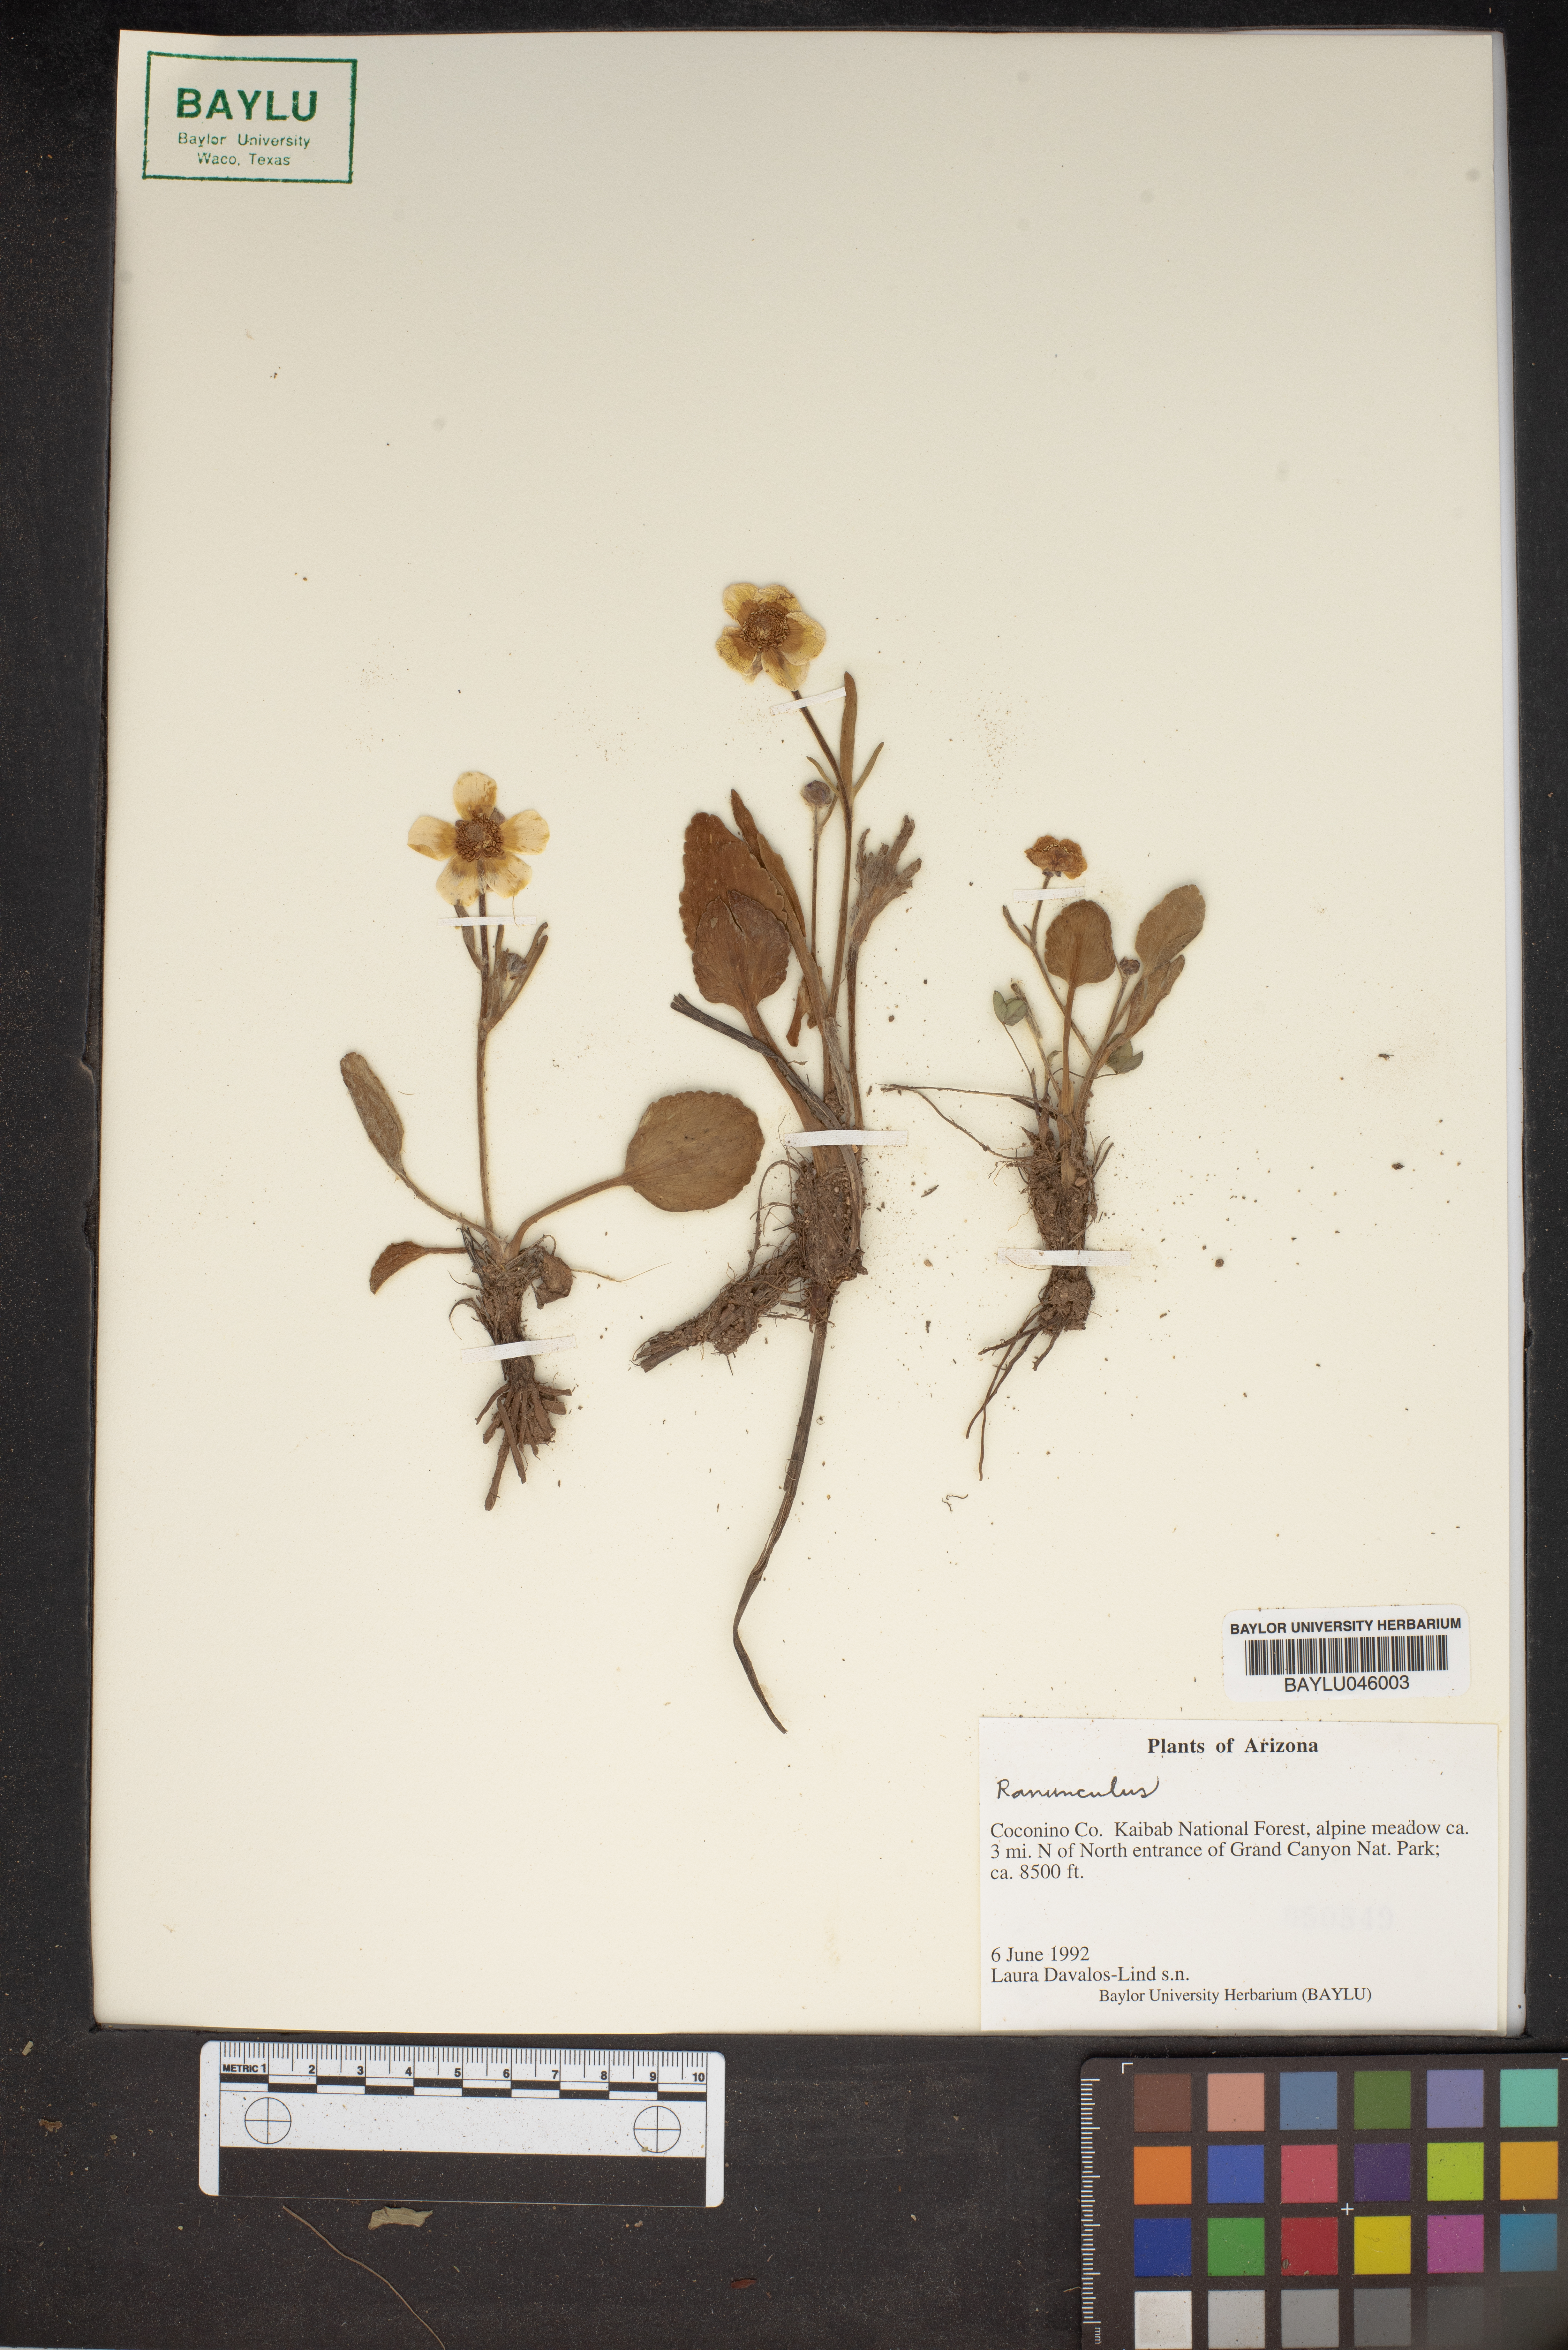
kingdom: Plantae
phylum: Tracheophyta
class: Magnoliopsida
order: Ranunculales
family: Ranunculaceae
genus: Ranunculus
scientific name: Ranunculus
